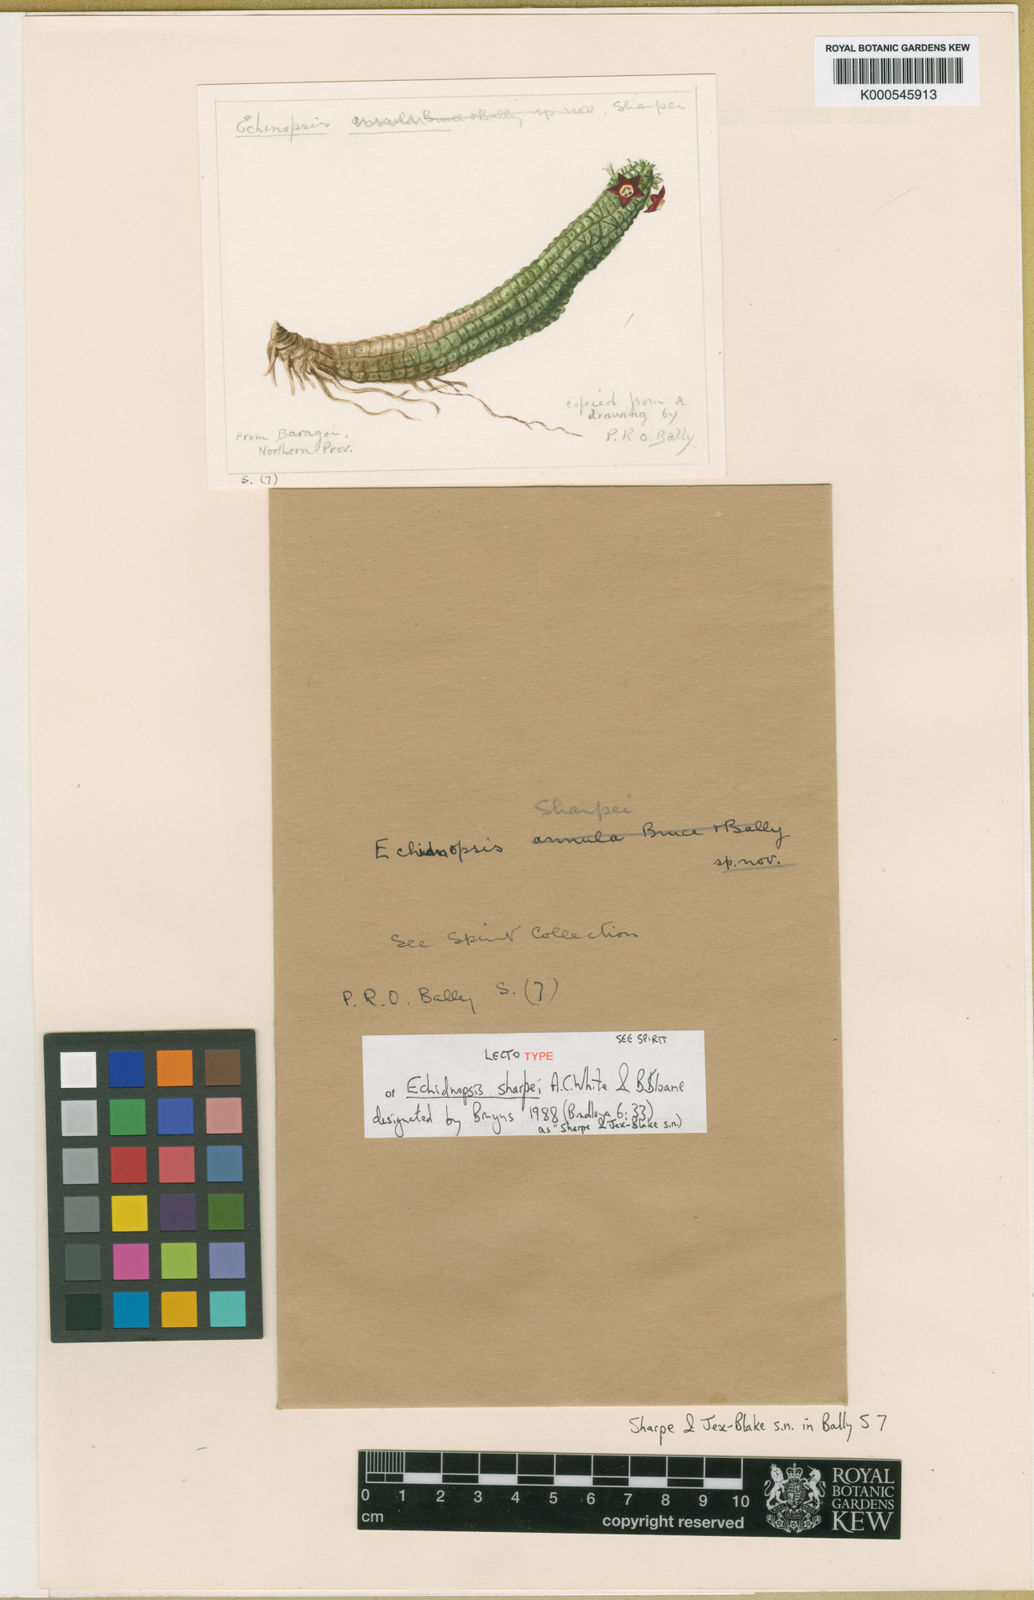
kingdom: Plantae
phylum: Tracheophyta
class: Magnoliopsida
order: Gentianales
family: Apocynaceae
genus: Ceropegia
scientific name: Ceropegia sharpei
